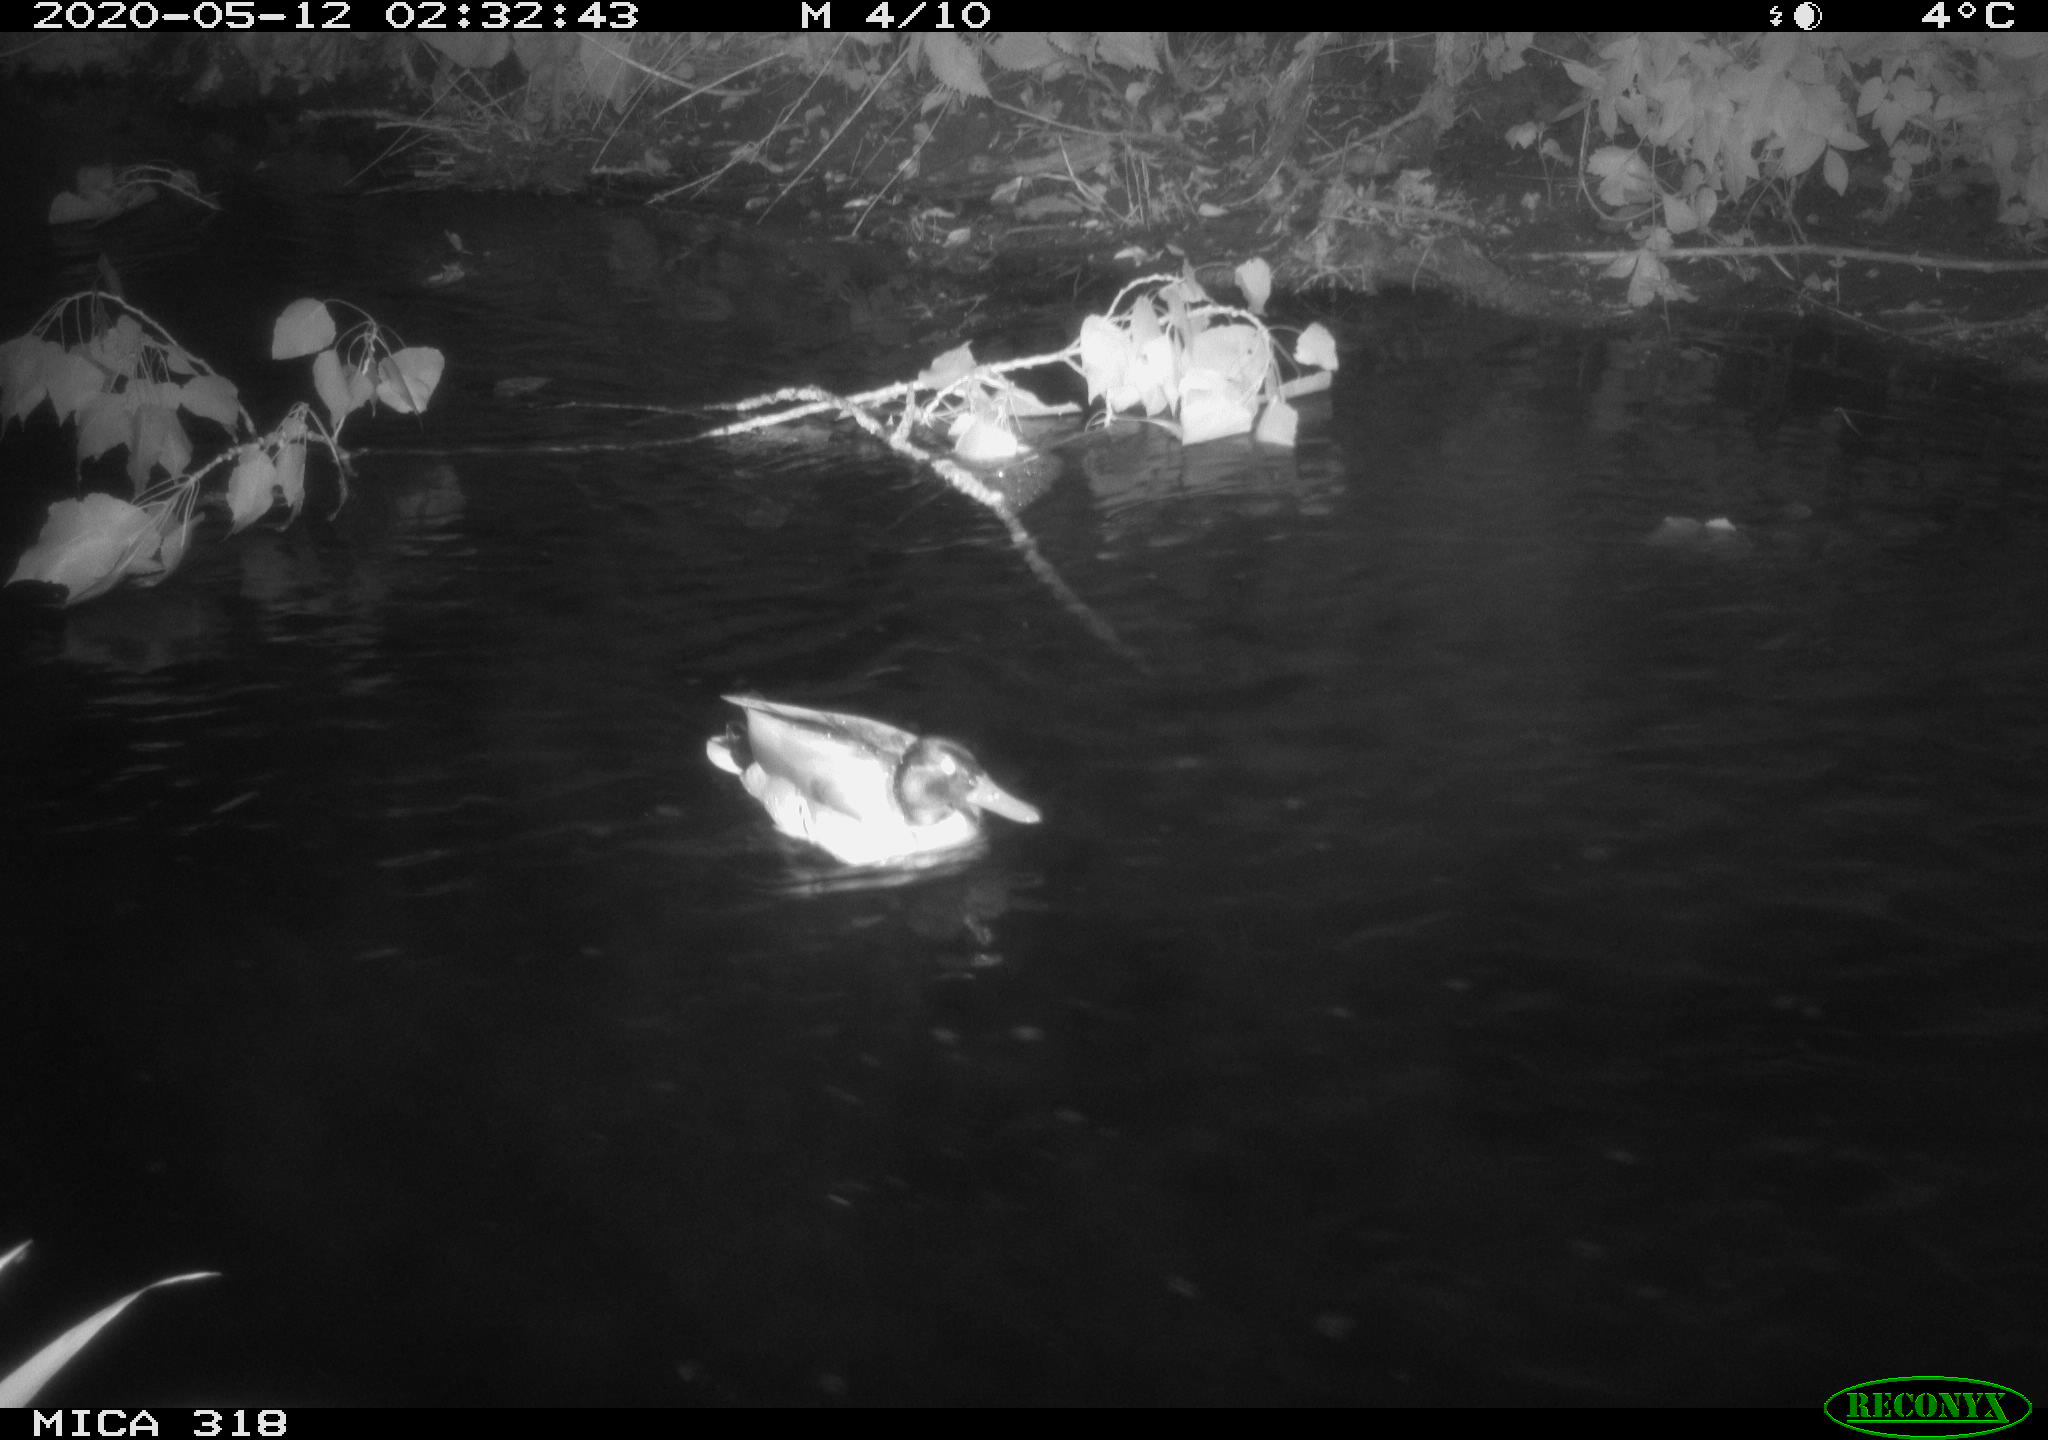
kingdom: Animalia
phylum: Chordata
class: Aves
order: Anseriformes
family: Anatidae
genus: Anas
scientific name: Anas platyrhynchos
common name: Mallard
